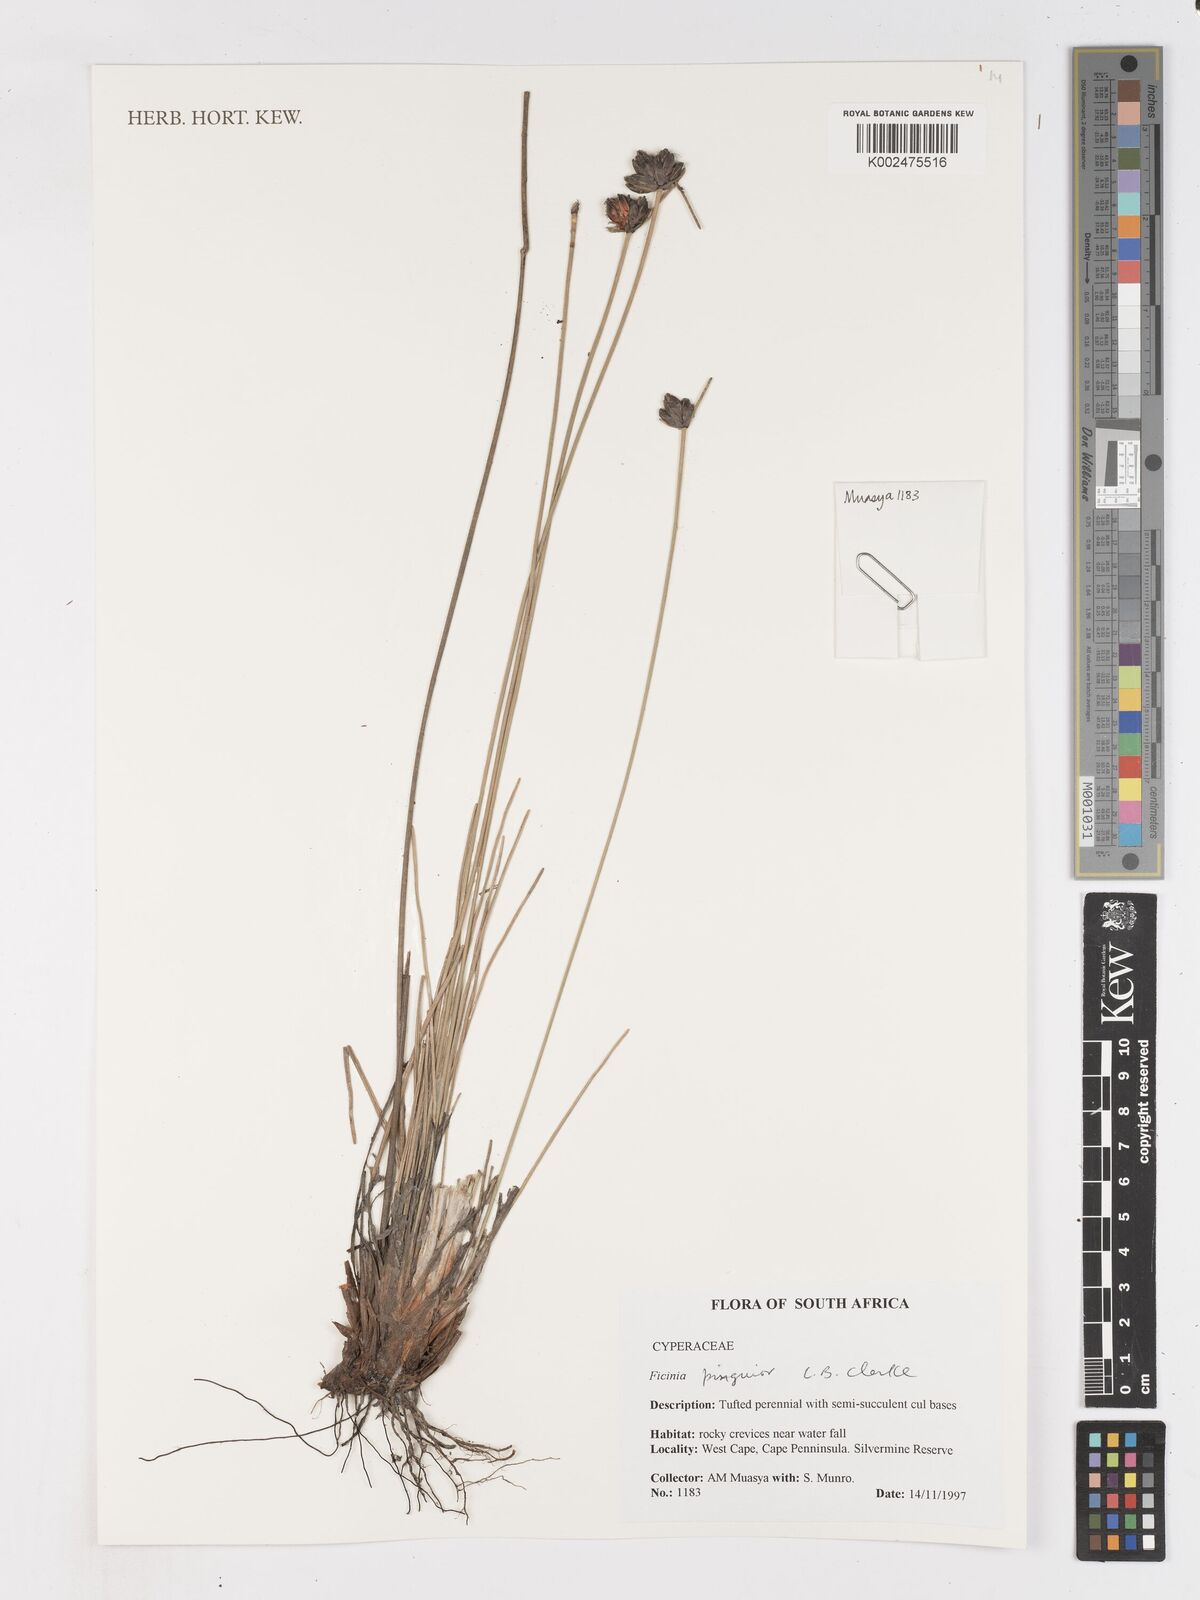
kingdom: Plantae
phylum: Tracheophyta
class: Liliopsida
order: Poales
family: Cyperaceae
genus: Ficinia
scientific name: Ficinia pinguior
